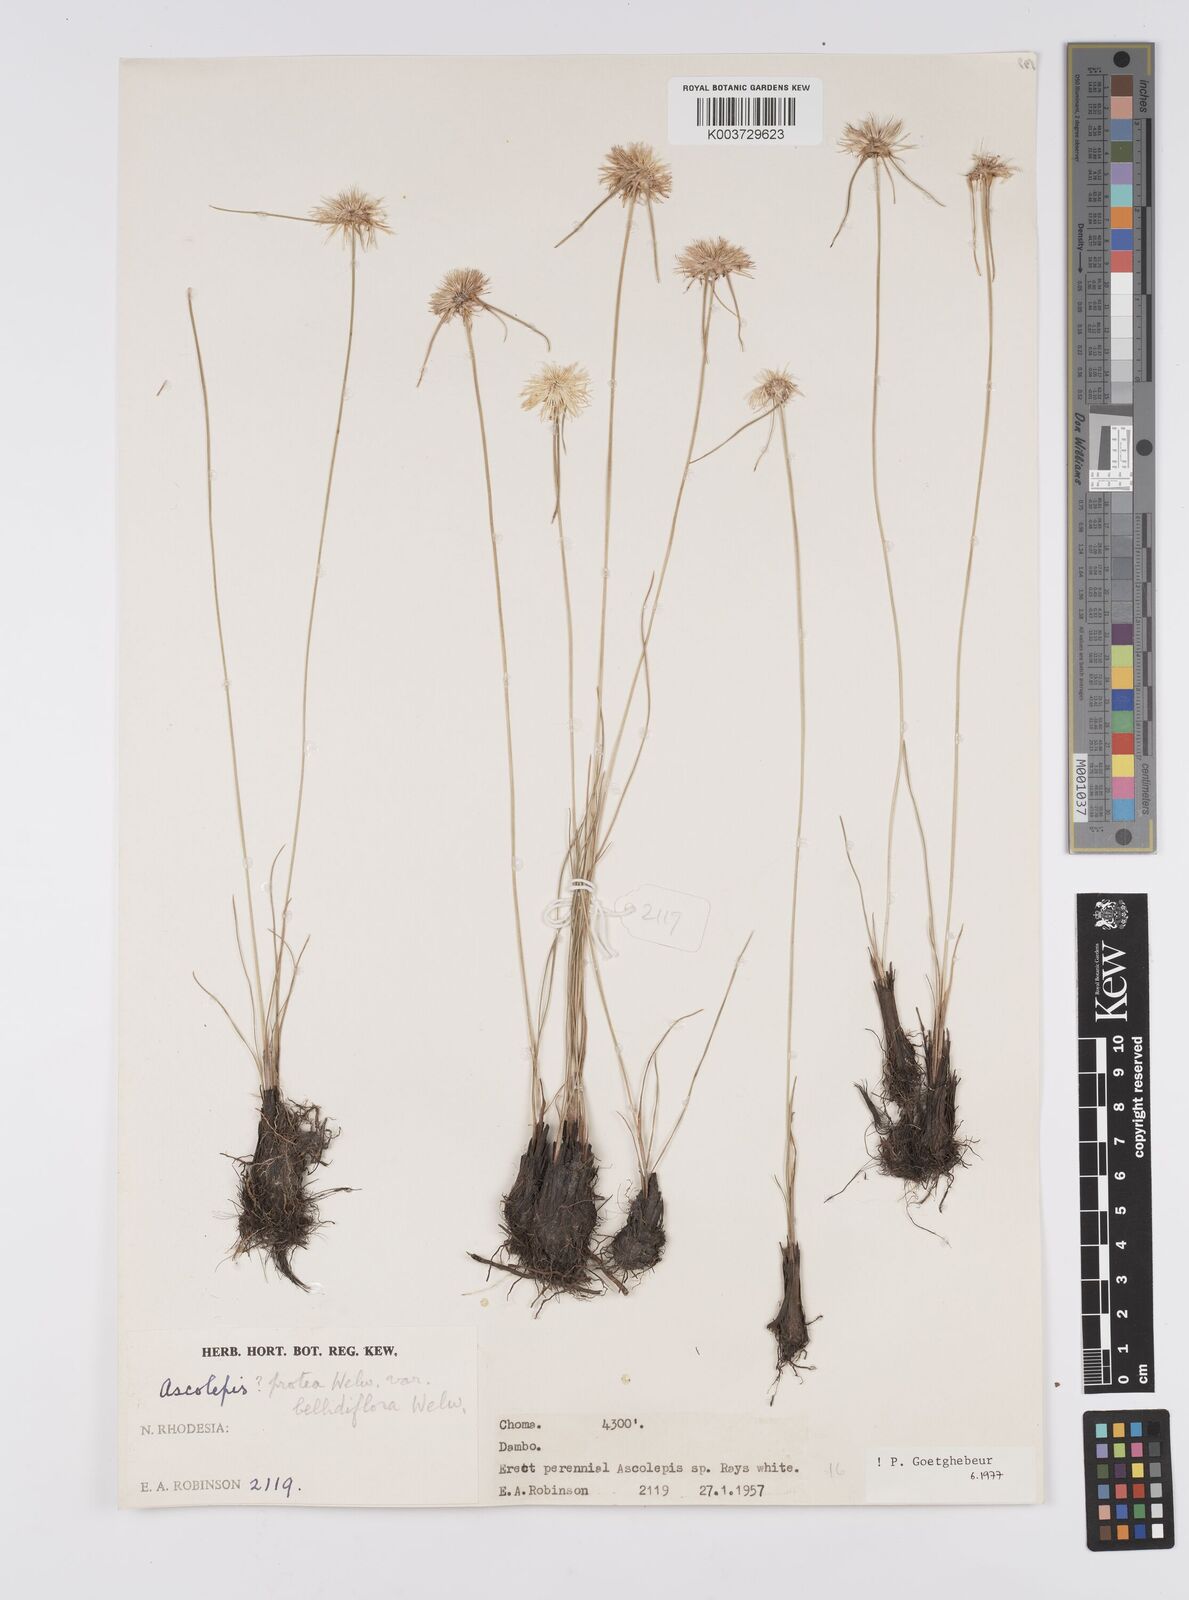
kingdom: Plantae
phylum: Tracheophyta
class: Liliopsida
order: Poales
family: Cyperaceae
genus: Cyperus
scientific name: Cyperus
